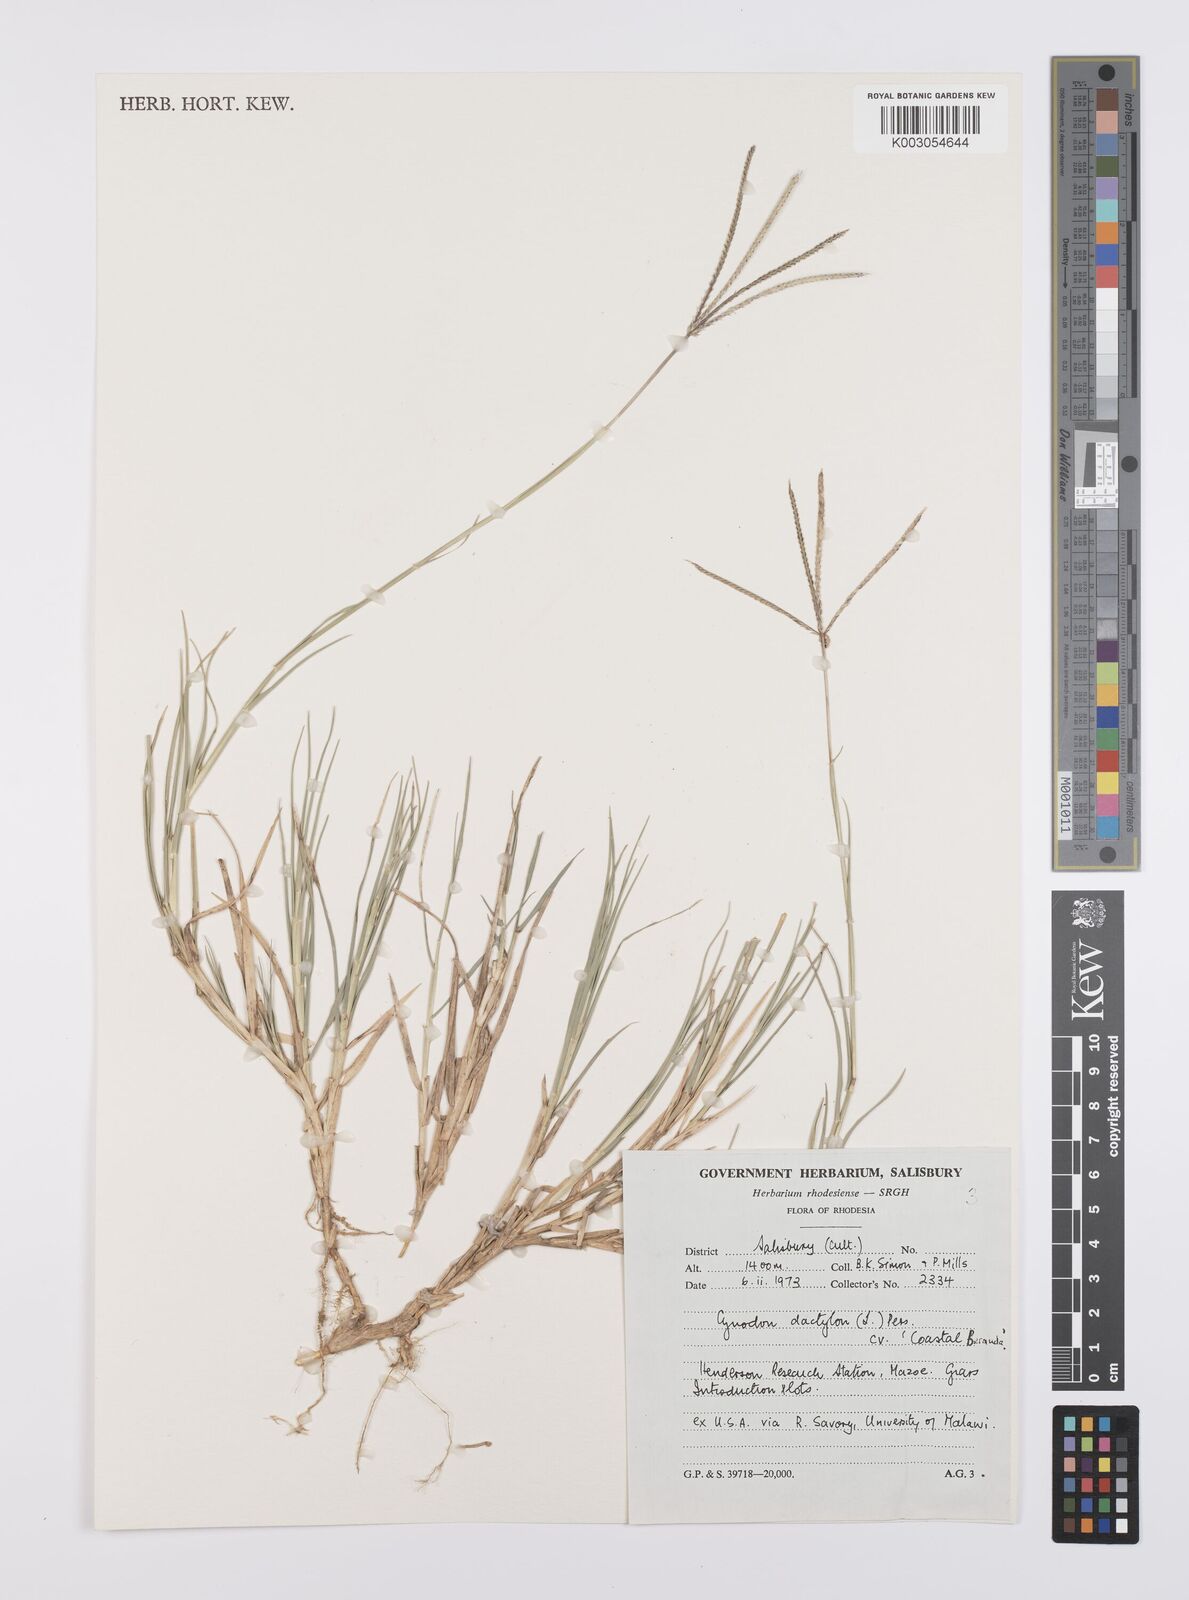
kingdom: Plantae
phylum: Tracheophyta
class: Liliopsida
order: Poales
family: Poaceae
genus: Cynodon
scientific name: Cynodon dactylon
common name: Bermuda grass
